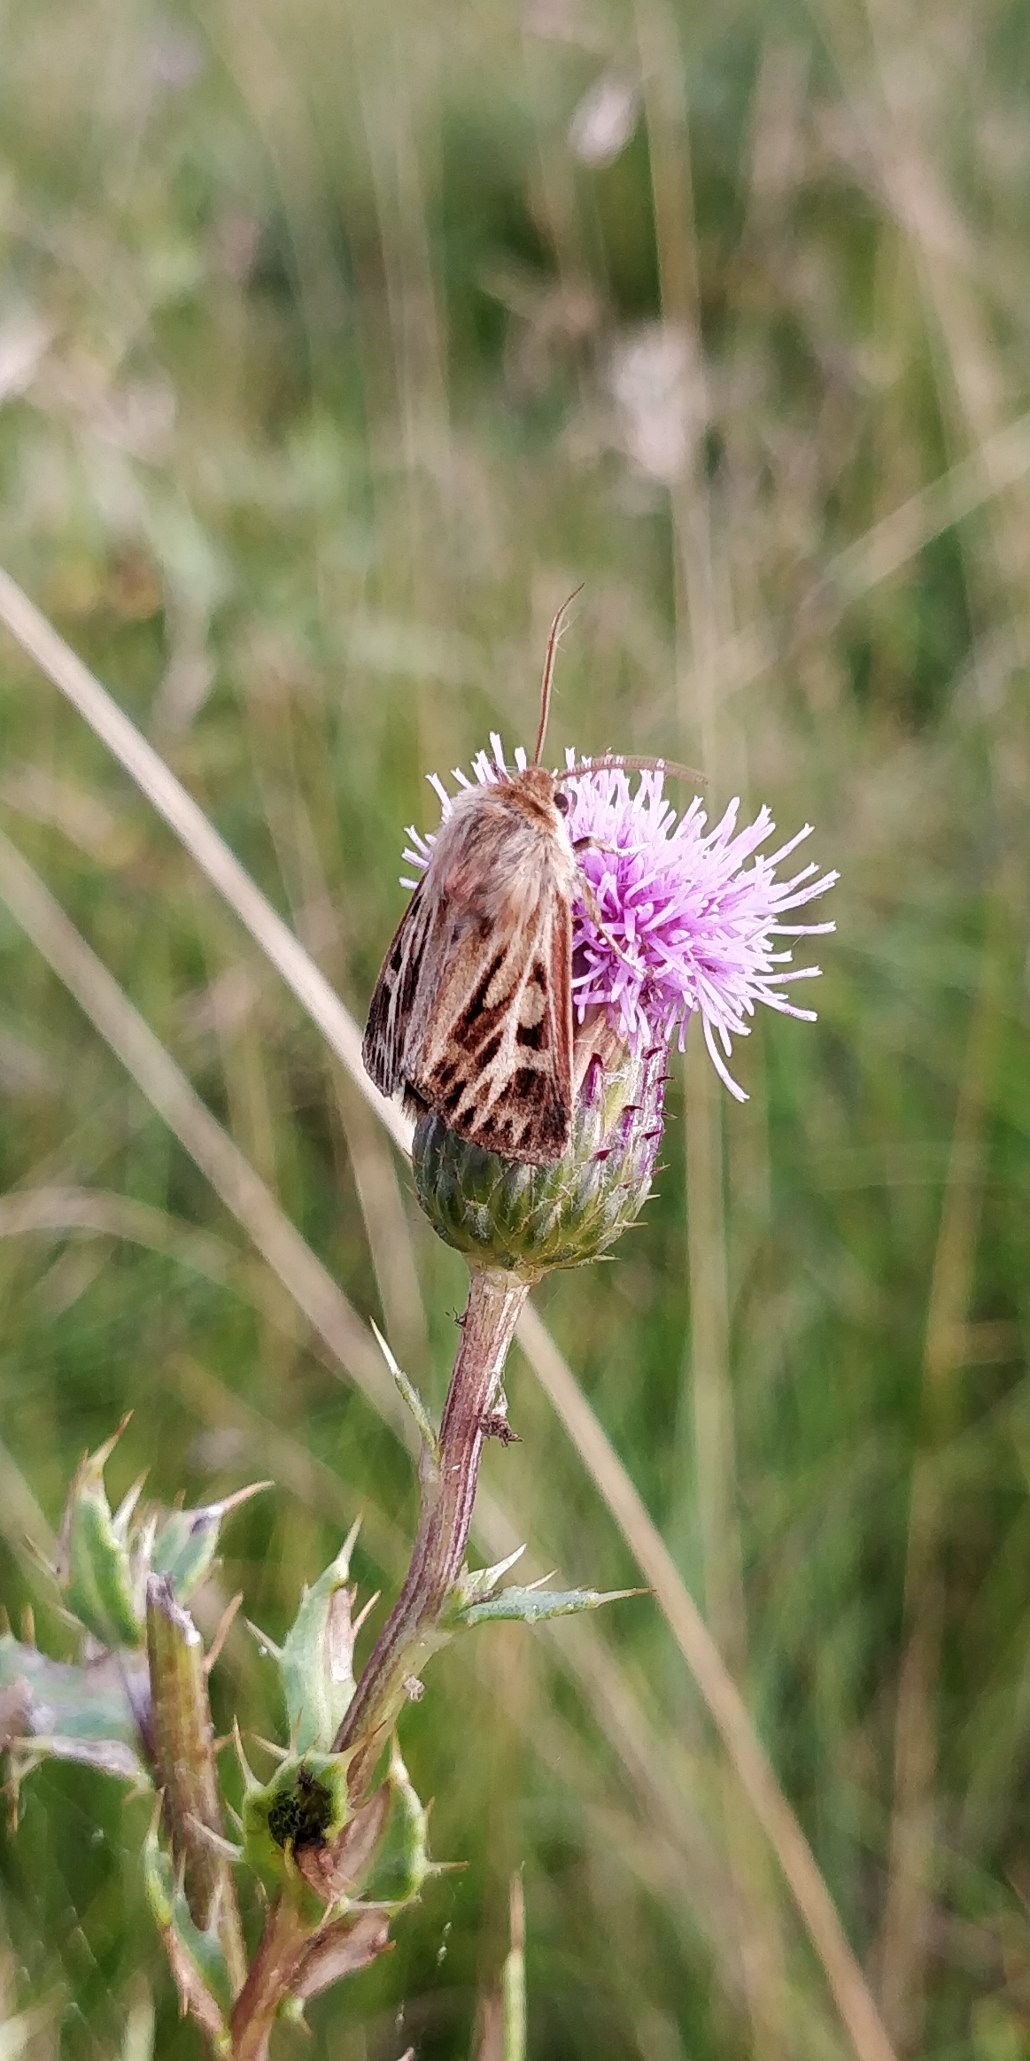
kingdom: Animalia
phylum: Arthropoda
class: Insecta
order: Lepidoptera
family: Noctuidae
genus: Cerapteryx
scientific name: Cerapteryx graminis
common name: Mosebunkeugle
